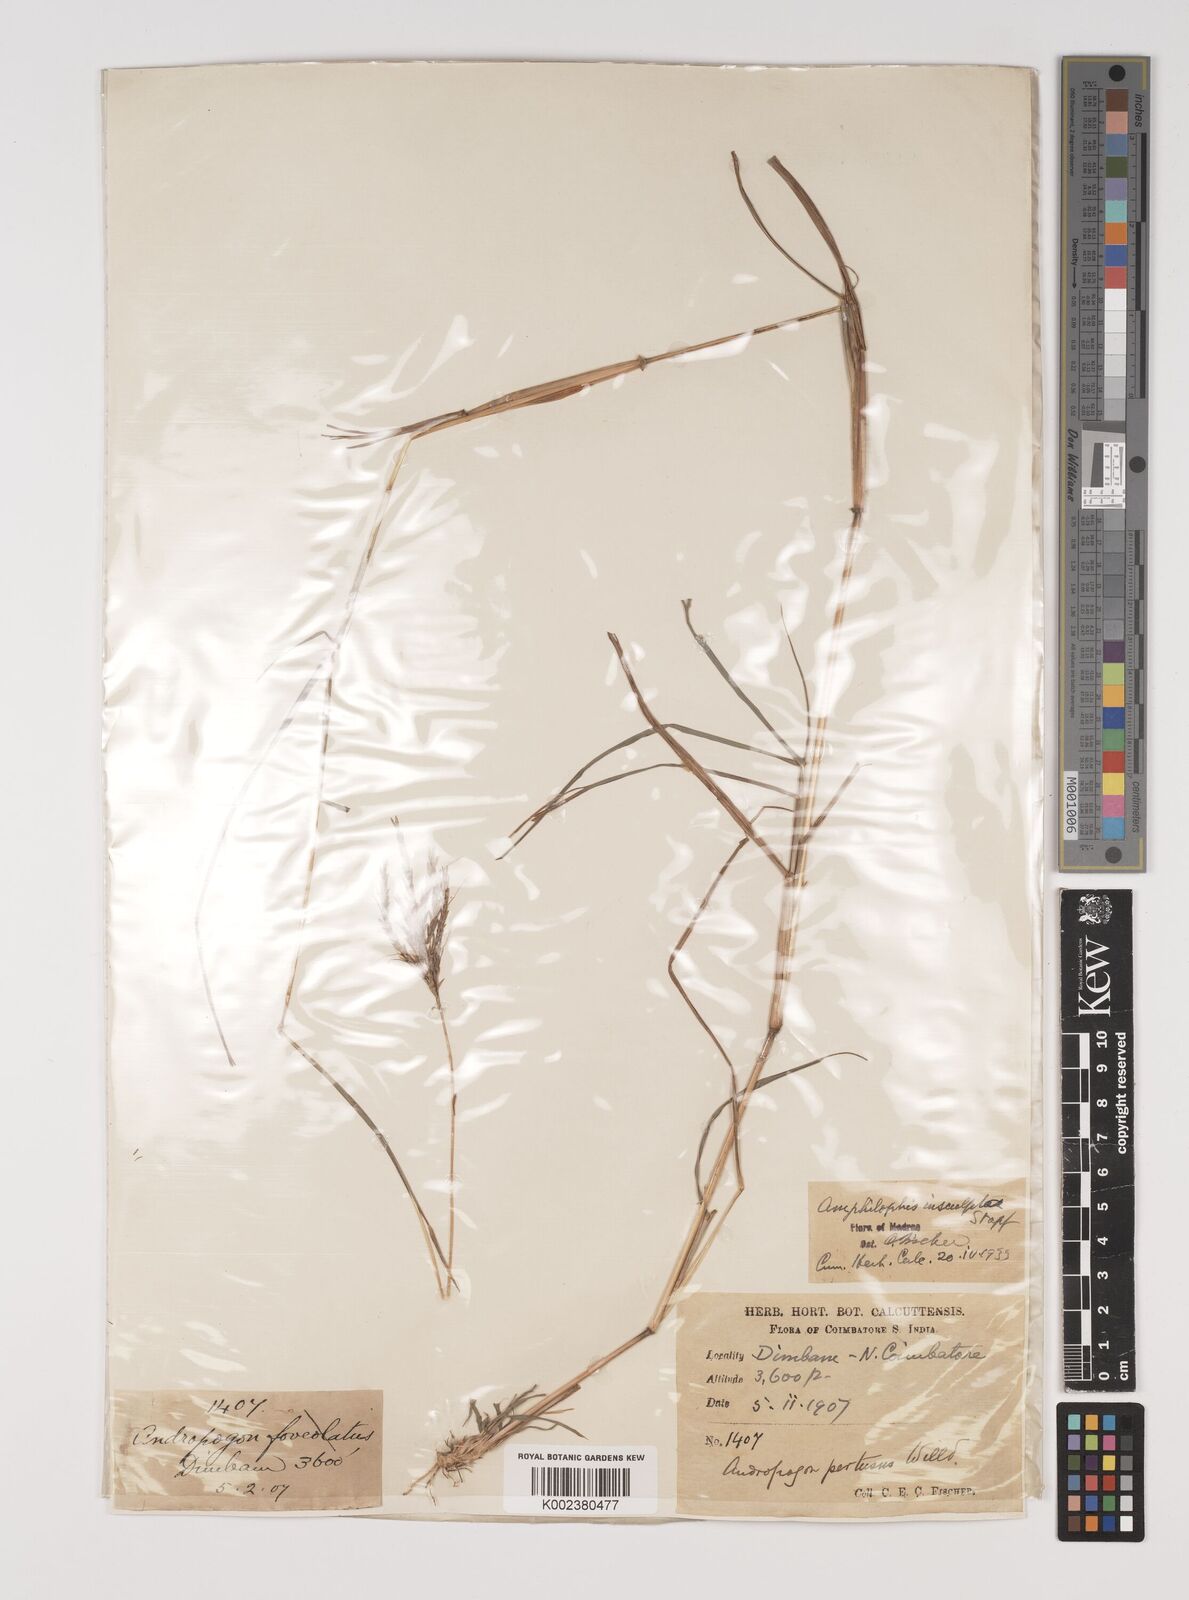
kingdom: Plantae
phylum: Tracheophyta
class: Liliopsida
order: Poales
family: Poaceae
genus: Bothriochloa
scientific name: Bothriochloa insculpta
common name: Creeping-bluegrass
